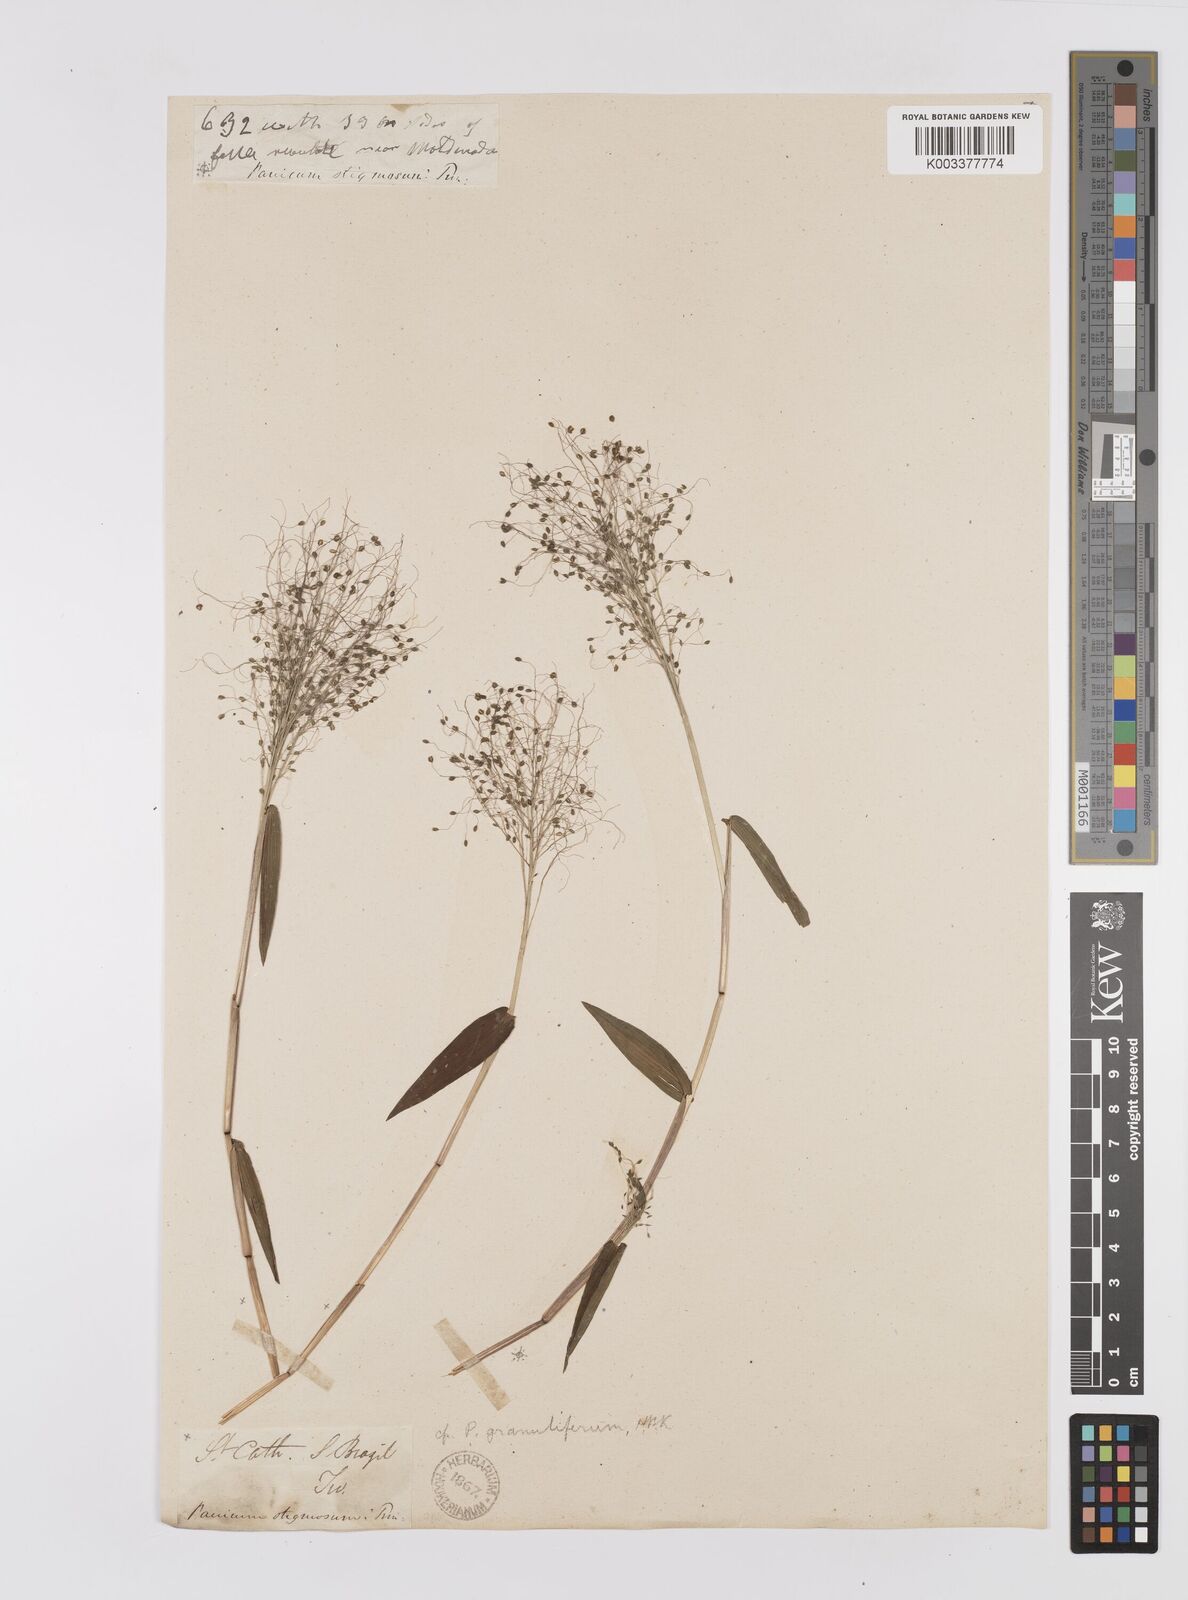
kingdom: Plantae
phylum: Tracheophyta
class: Liliopsida
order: Poales
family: Poaceae
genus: Trichanthecium
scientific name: Trichanthecium schwackeanum
